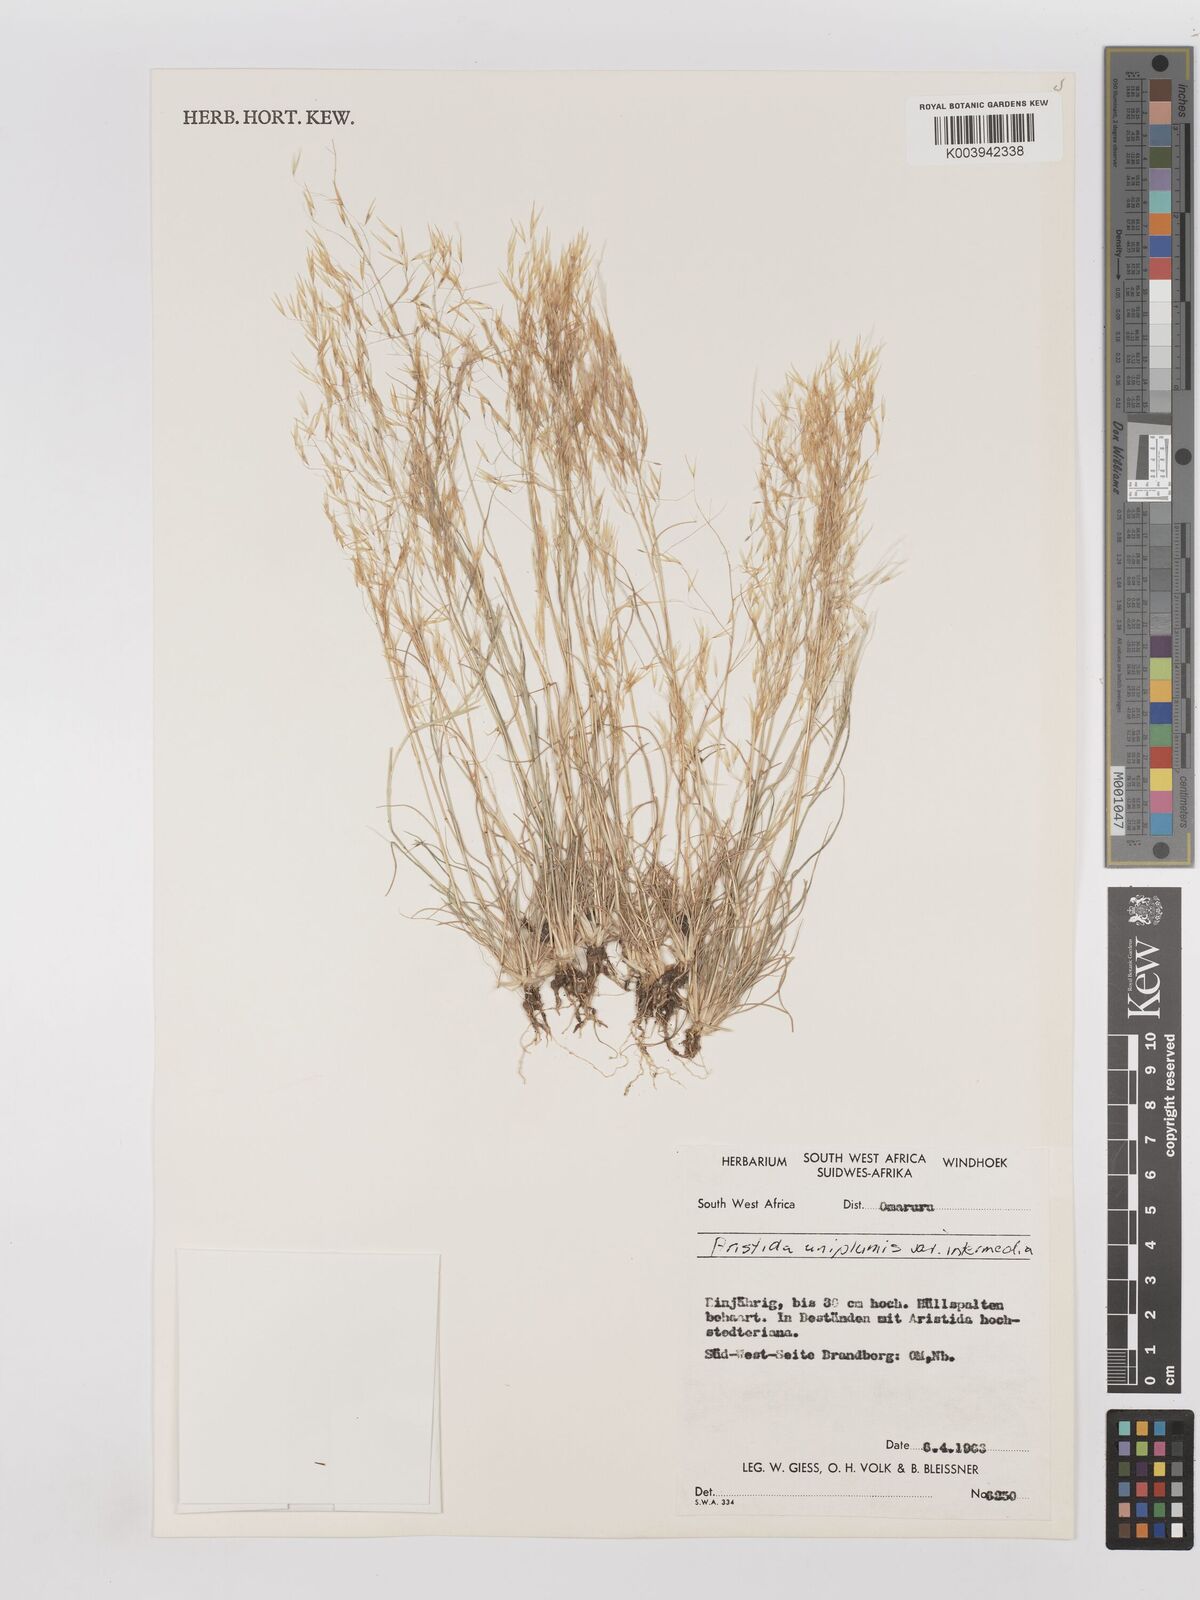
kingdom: Plantae
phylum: Tracheophyta
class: Liliopsida
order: Poales
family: Poaceae
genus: Stipagrostis
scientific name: Stipagrostis uniplumis
